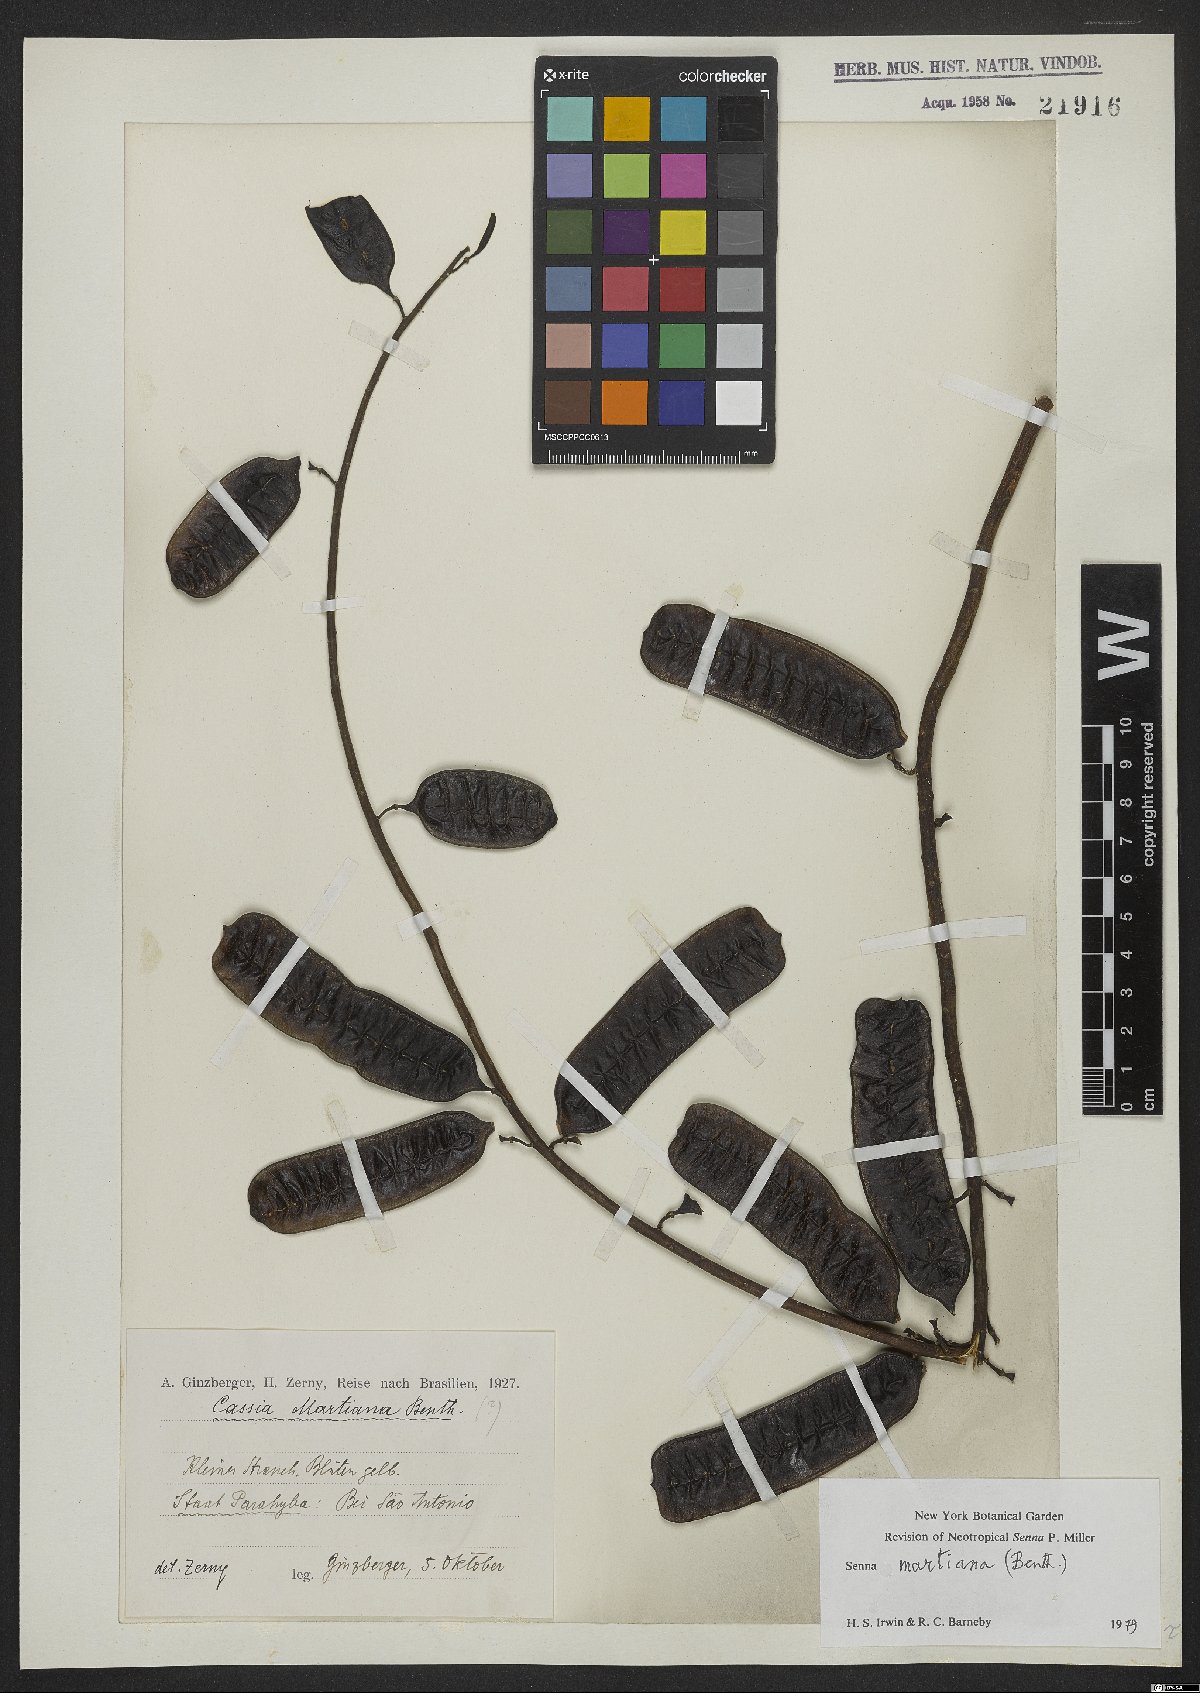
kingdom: Plantae
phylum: Tracheophyta
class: Magnoliopsida
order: Fabales
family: Fabaceae
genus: Senna
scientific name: Senna martiana
